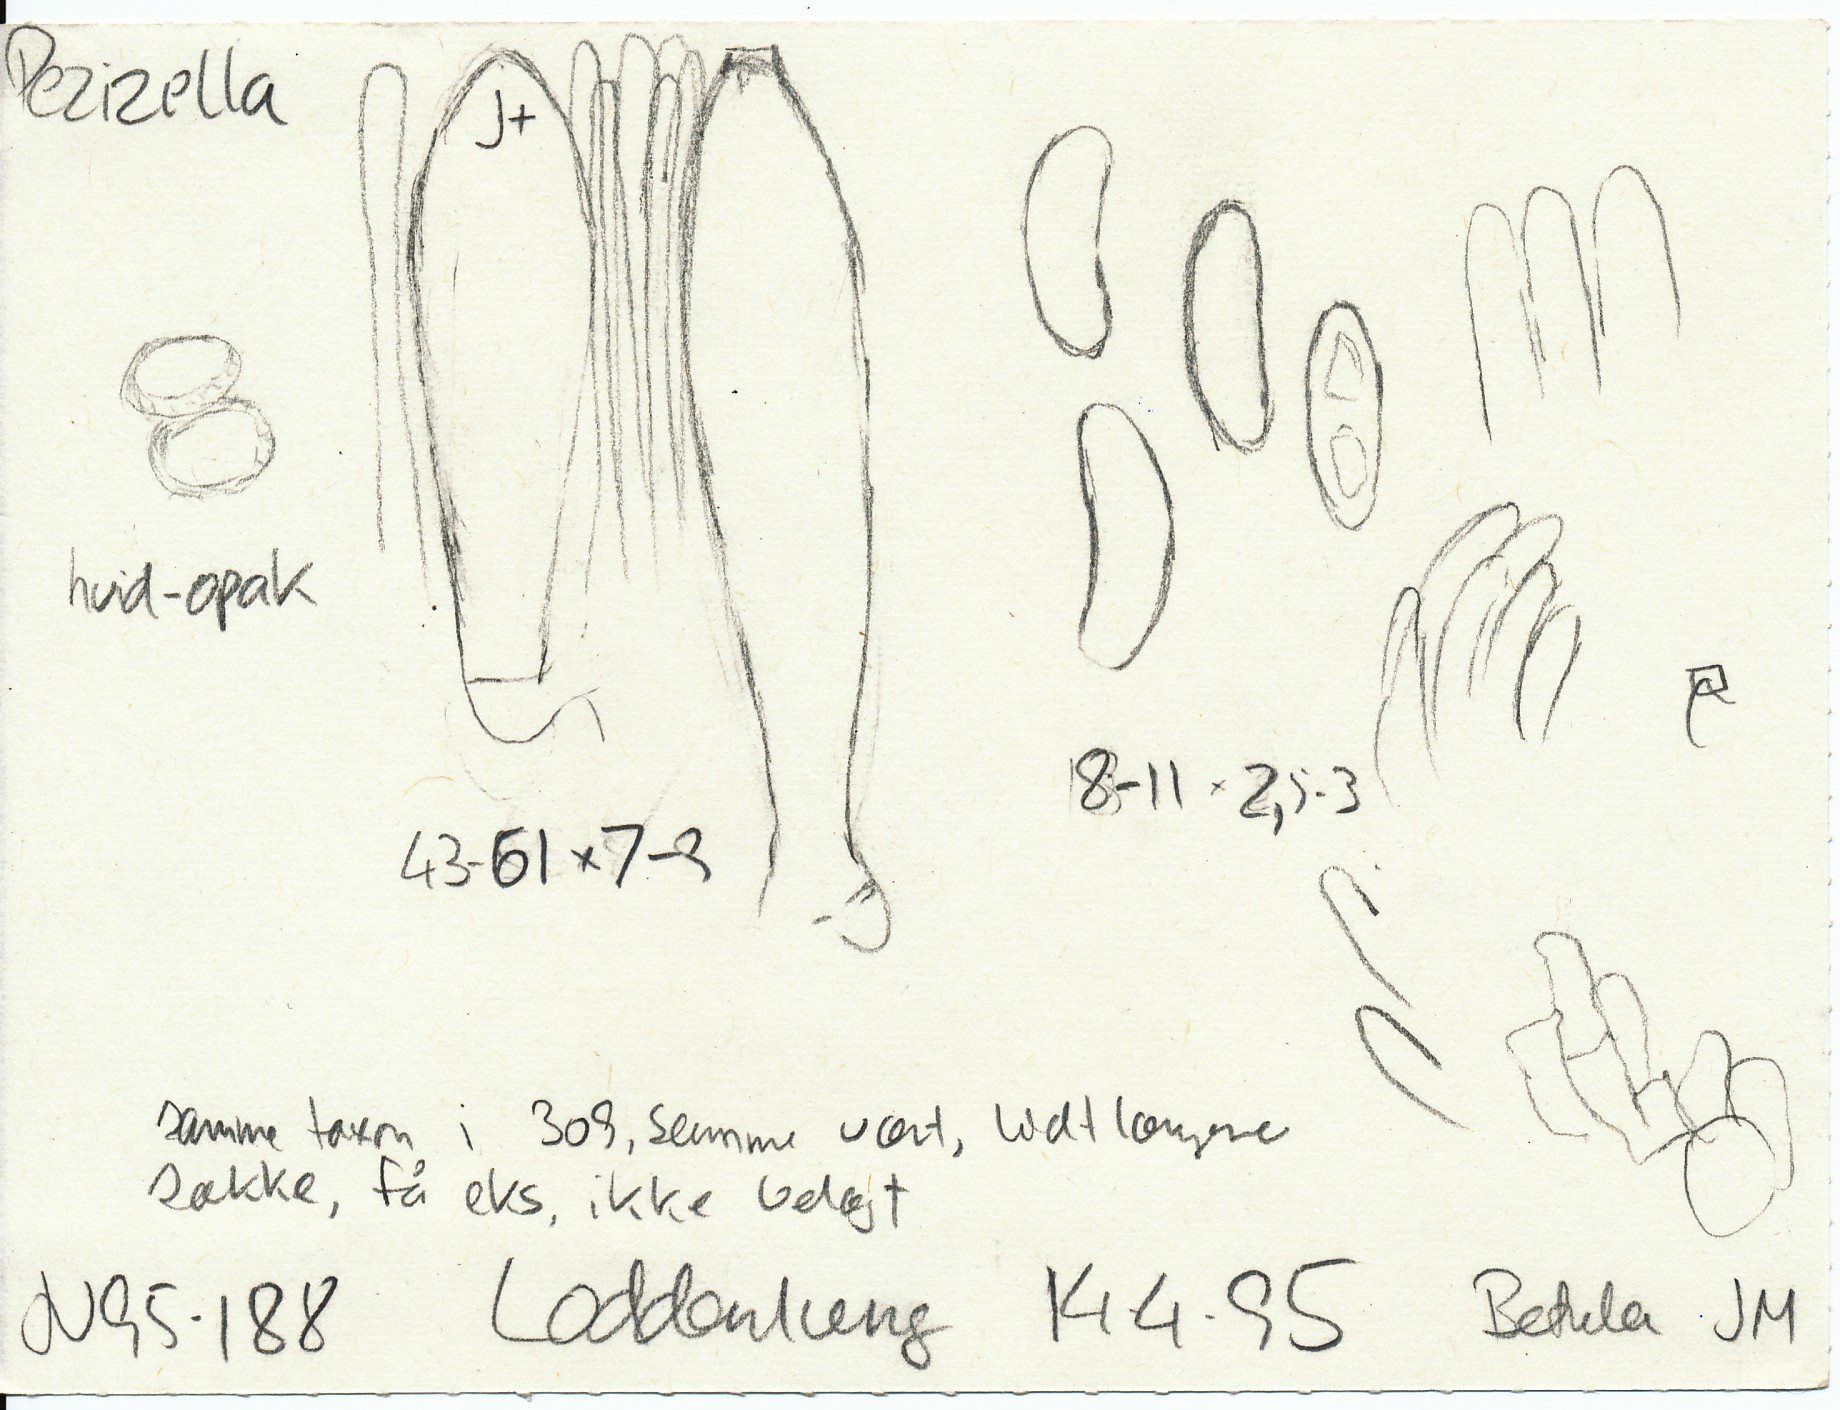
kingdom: Fungi
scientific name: Fungi
